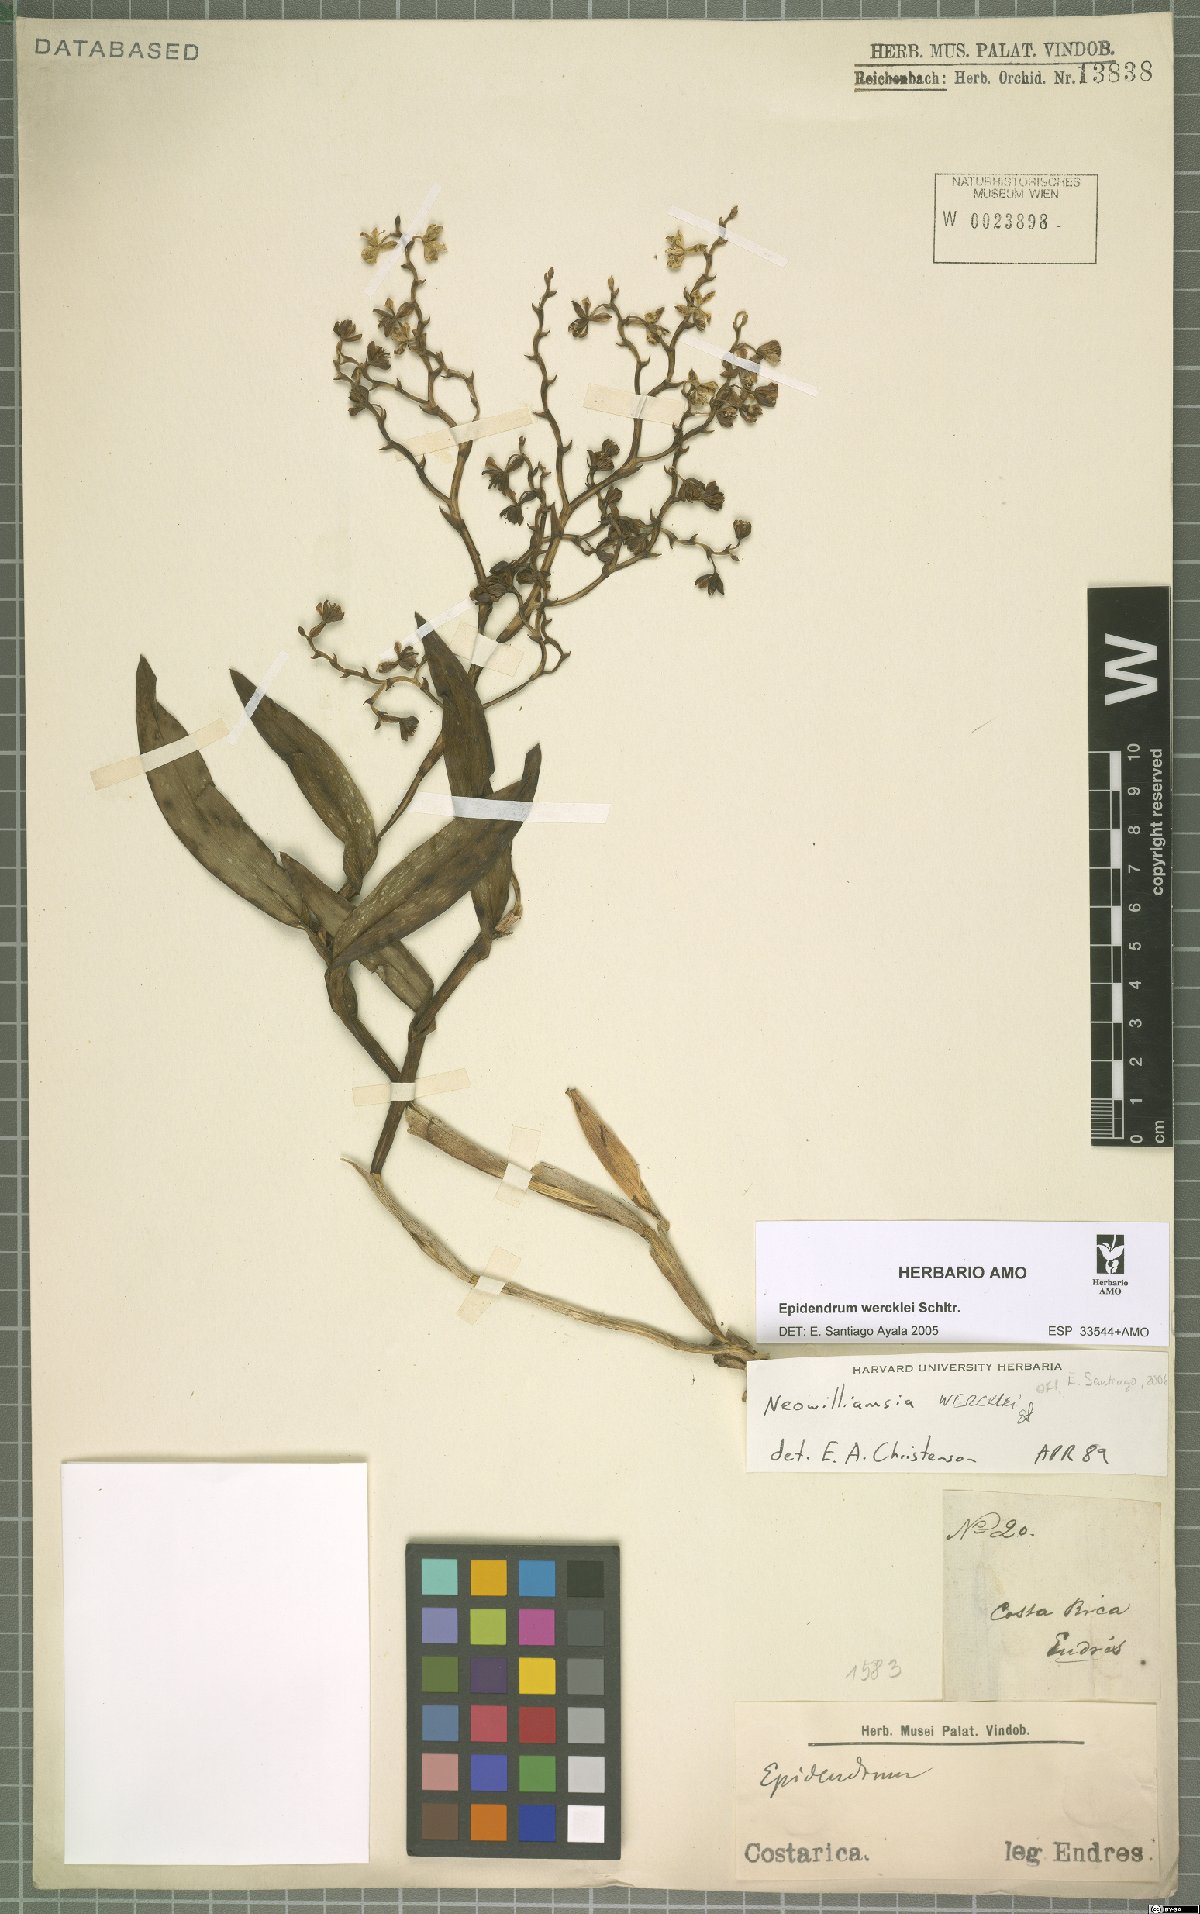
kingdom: Plantae
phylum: Tracheophyta
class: Liliopsida
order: Asparagales
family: Orchidaceae
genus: Epidendrum
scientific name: Epidendrum wercklei
